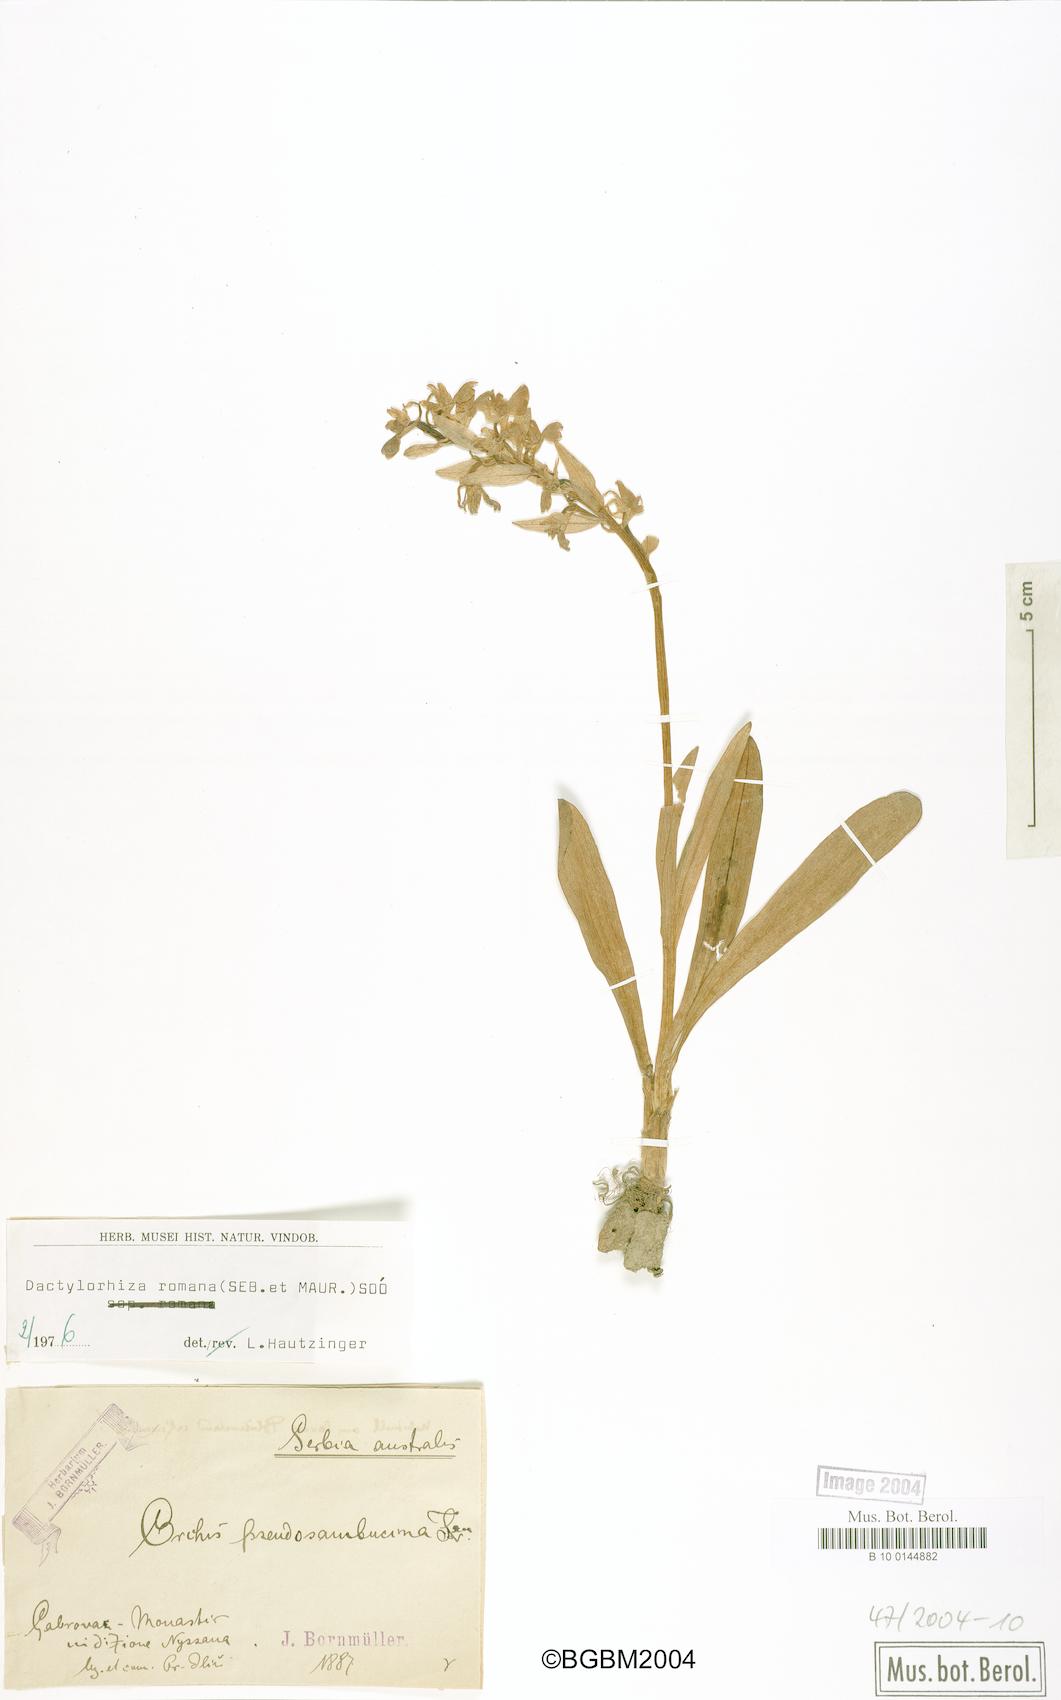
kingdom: Plantae
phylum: Tracheophyta
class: Liliopsida
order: Asparagales
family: Orchidaceae
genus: Dactylorhiza
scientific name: Dactylorhiza romana
